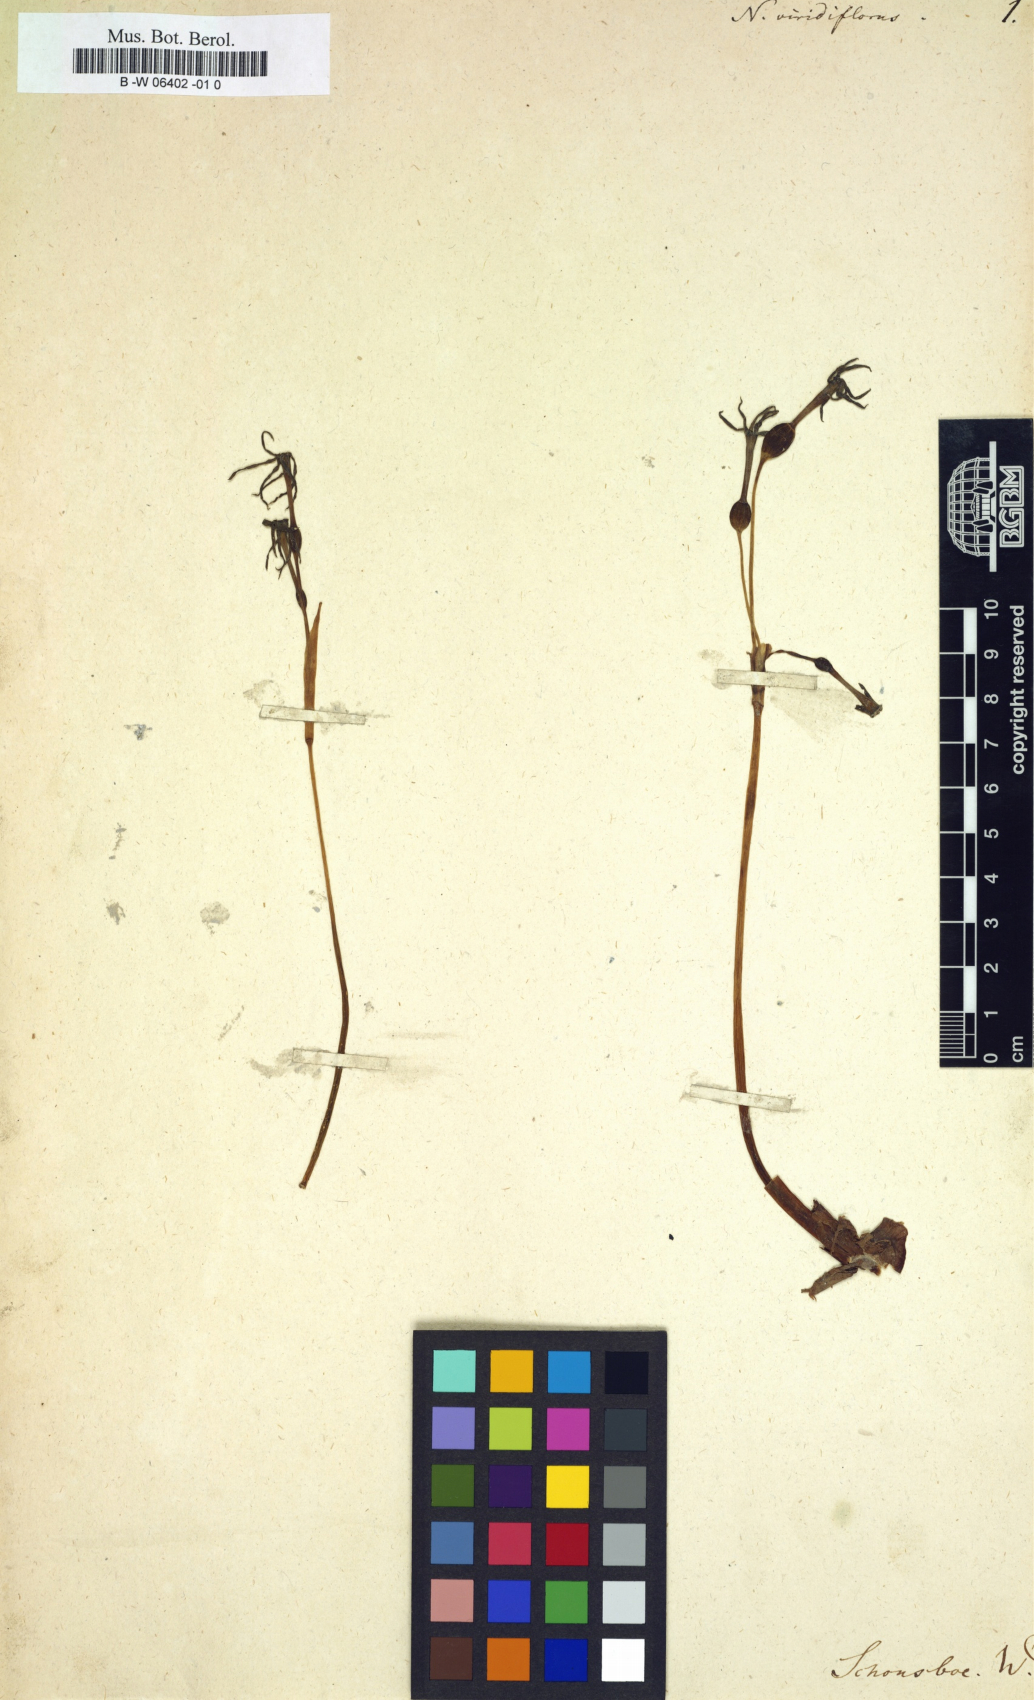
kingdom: Plantae
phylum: Tracheophyta
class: Liliopsida
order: Asparagales
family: Amaryllidaceae
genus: Narcissus
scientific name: Narcissus viridiflorus
